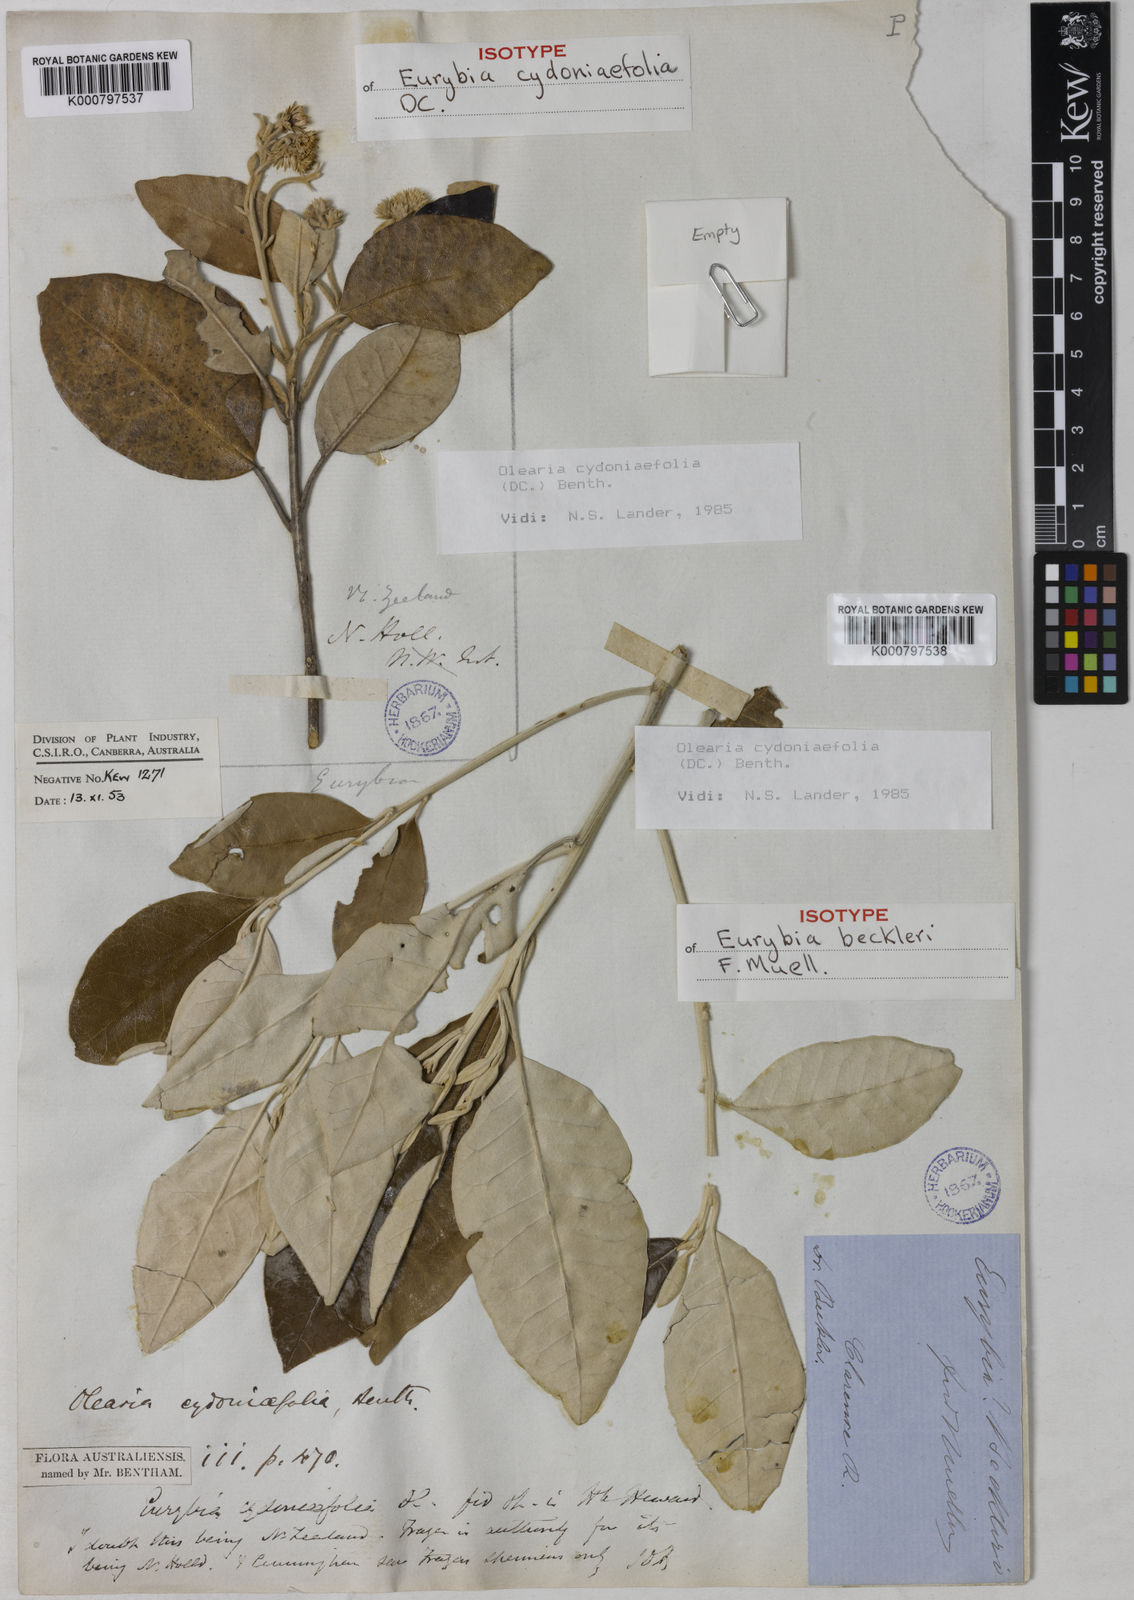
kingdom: Plantae
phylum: Tracheophyta
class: Magnoliopsida
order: Asterales
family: Asteraceae
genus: Olearia
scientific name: Olearia cydoniifolia
